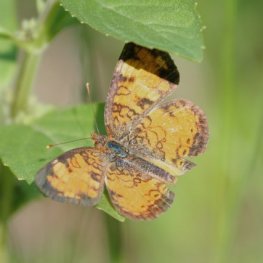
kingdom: Animalia
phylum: Arthropoda
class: Insecta
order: Lepidoptera
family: Nymphalidae
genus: Phyciodes
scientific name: Phyciodes tharos
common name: Northern Crescent
